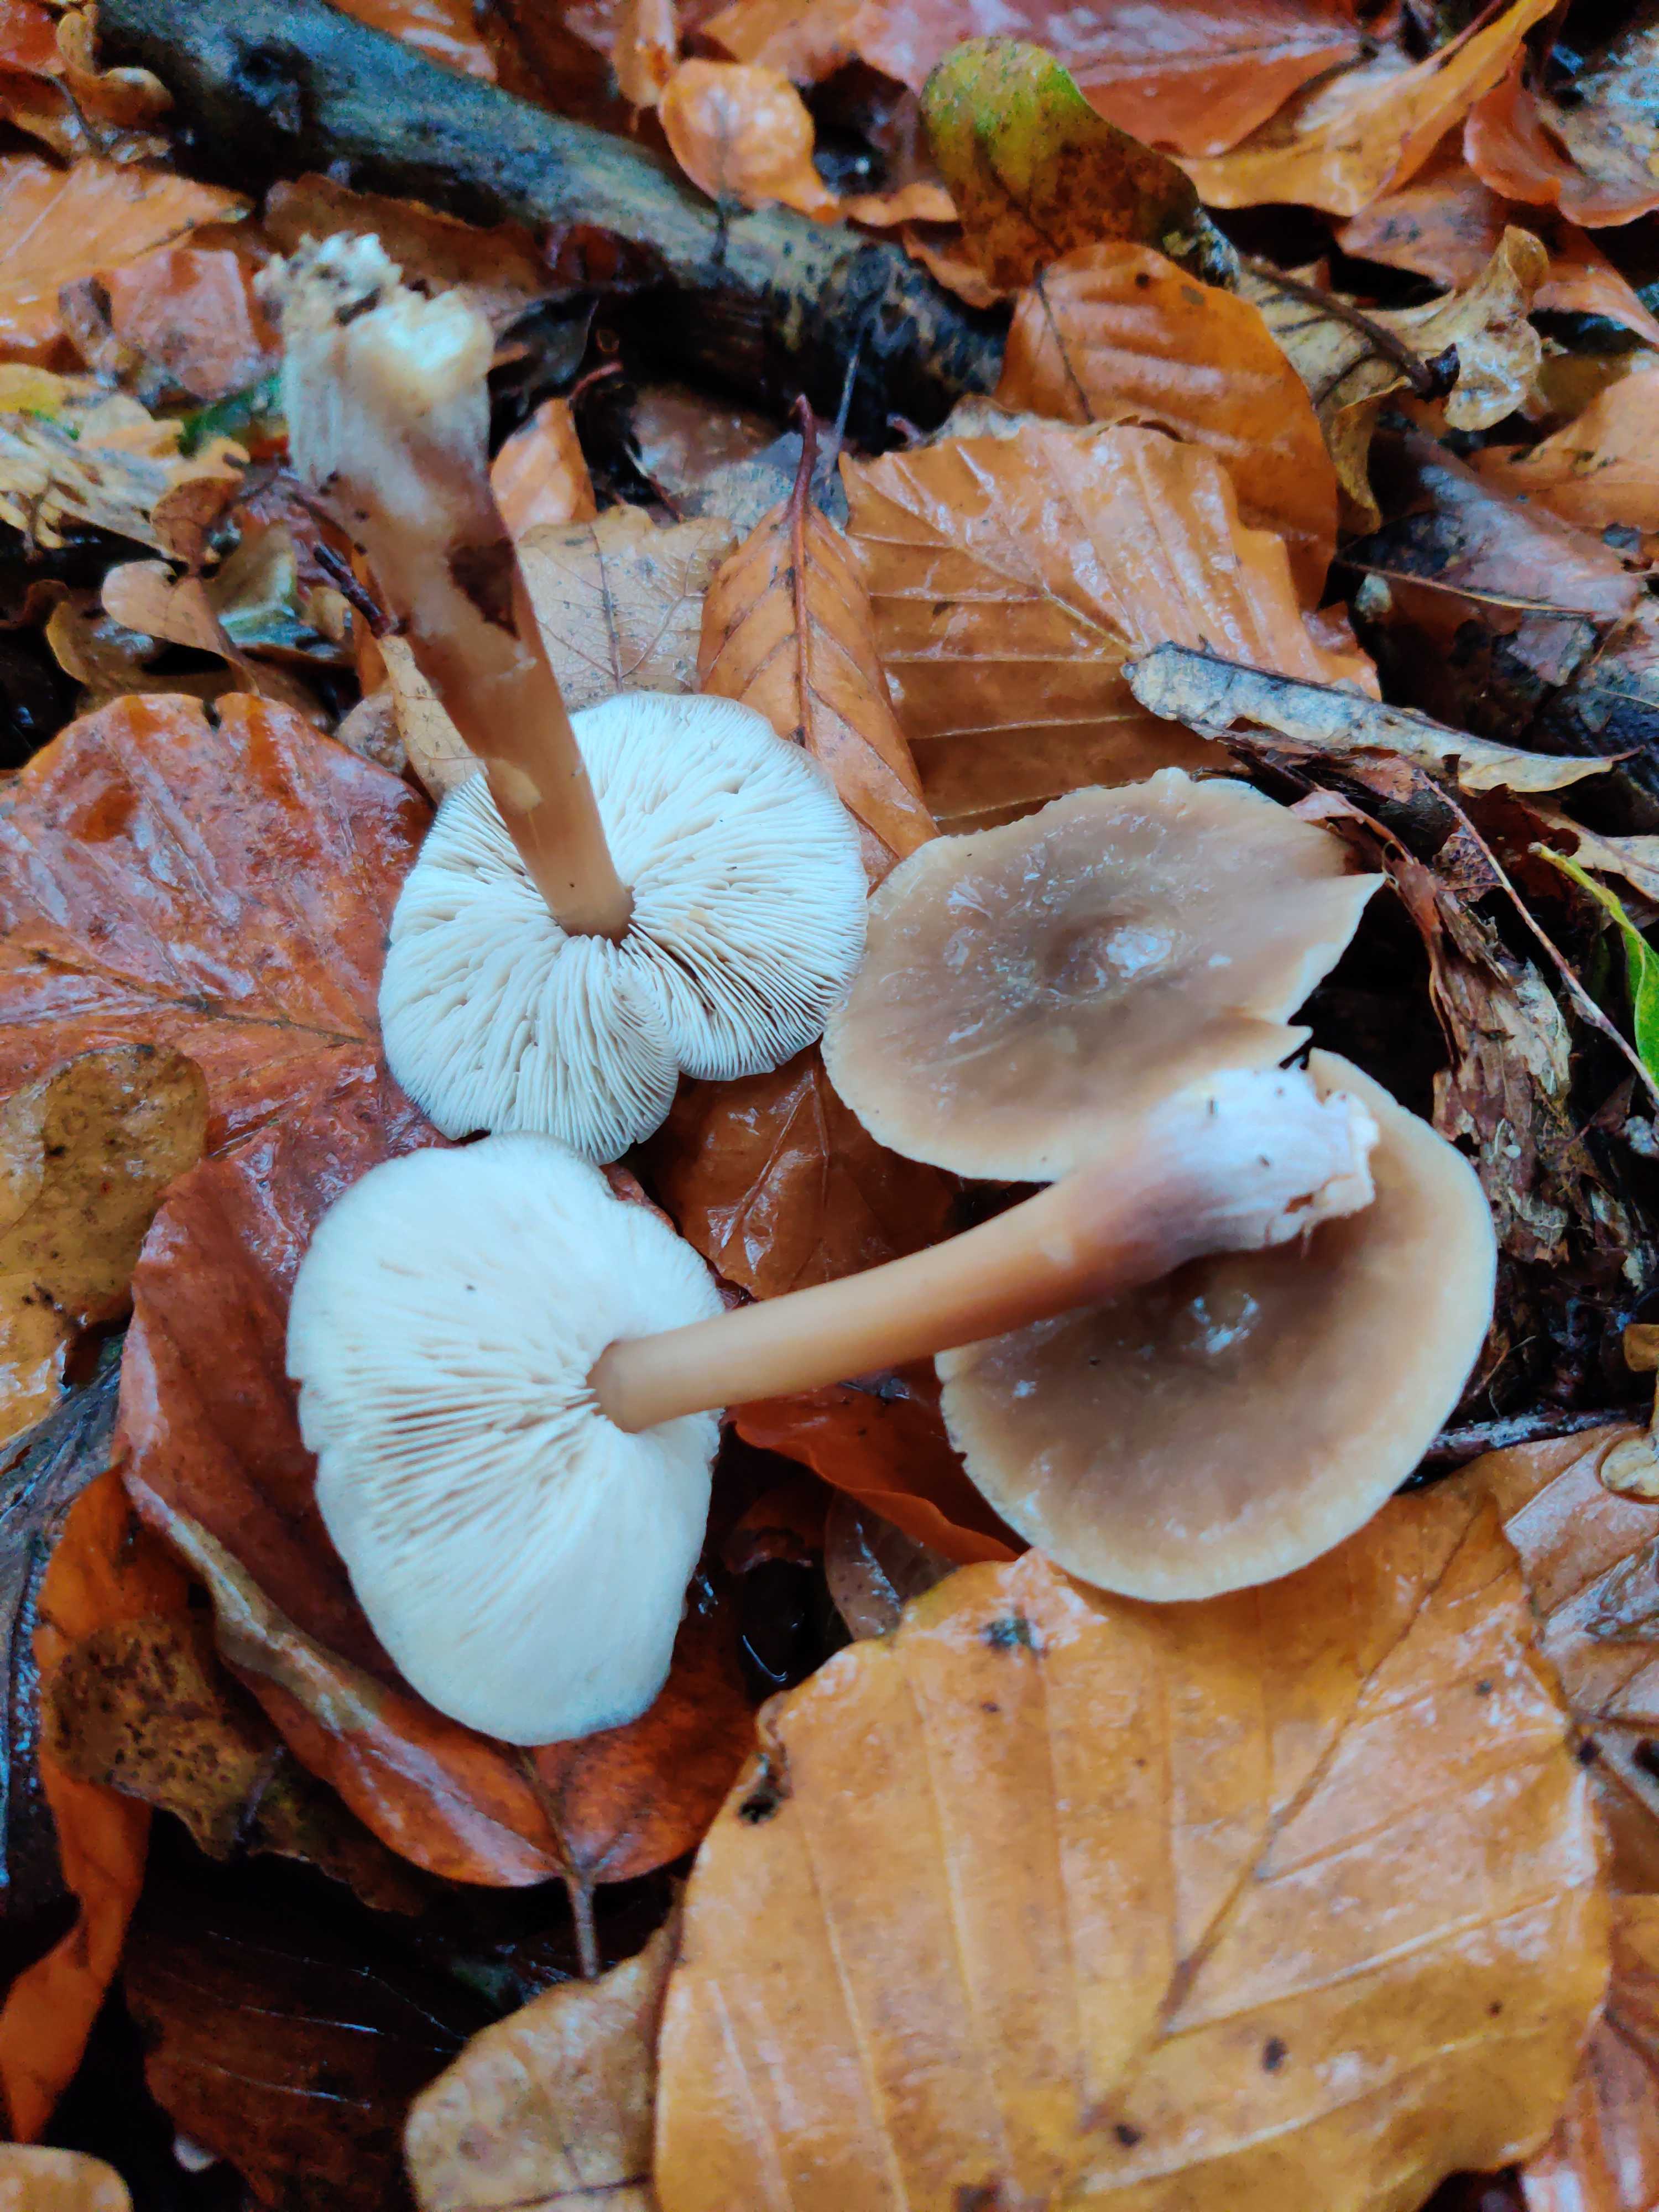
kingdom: Fungi
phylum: Basidiomycota
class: Agaricomycetes
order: Agaricales
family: Omphalotaceae
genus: Rhodocollybia
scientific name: Rhodocollybia asema
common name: horngrå fladhat
